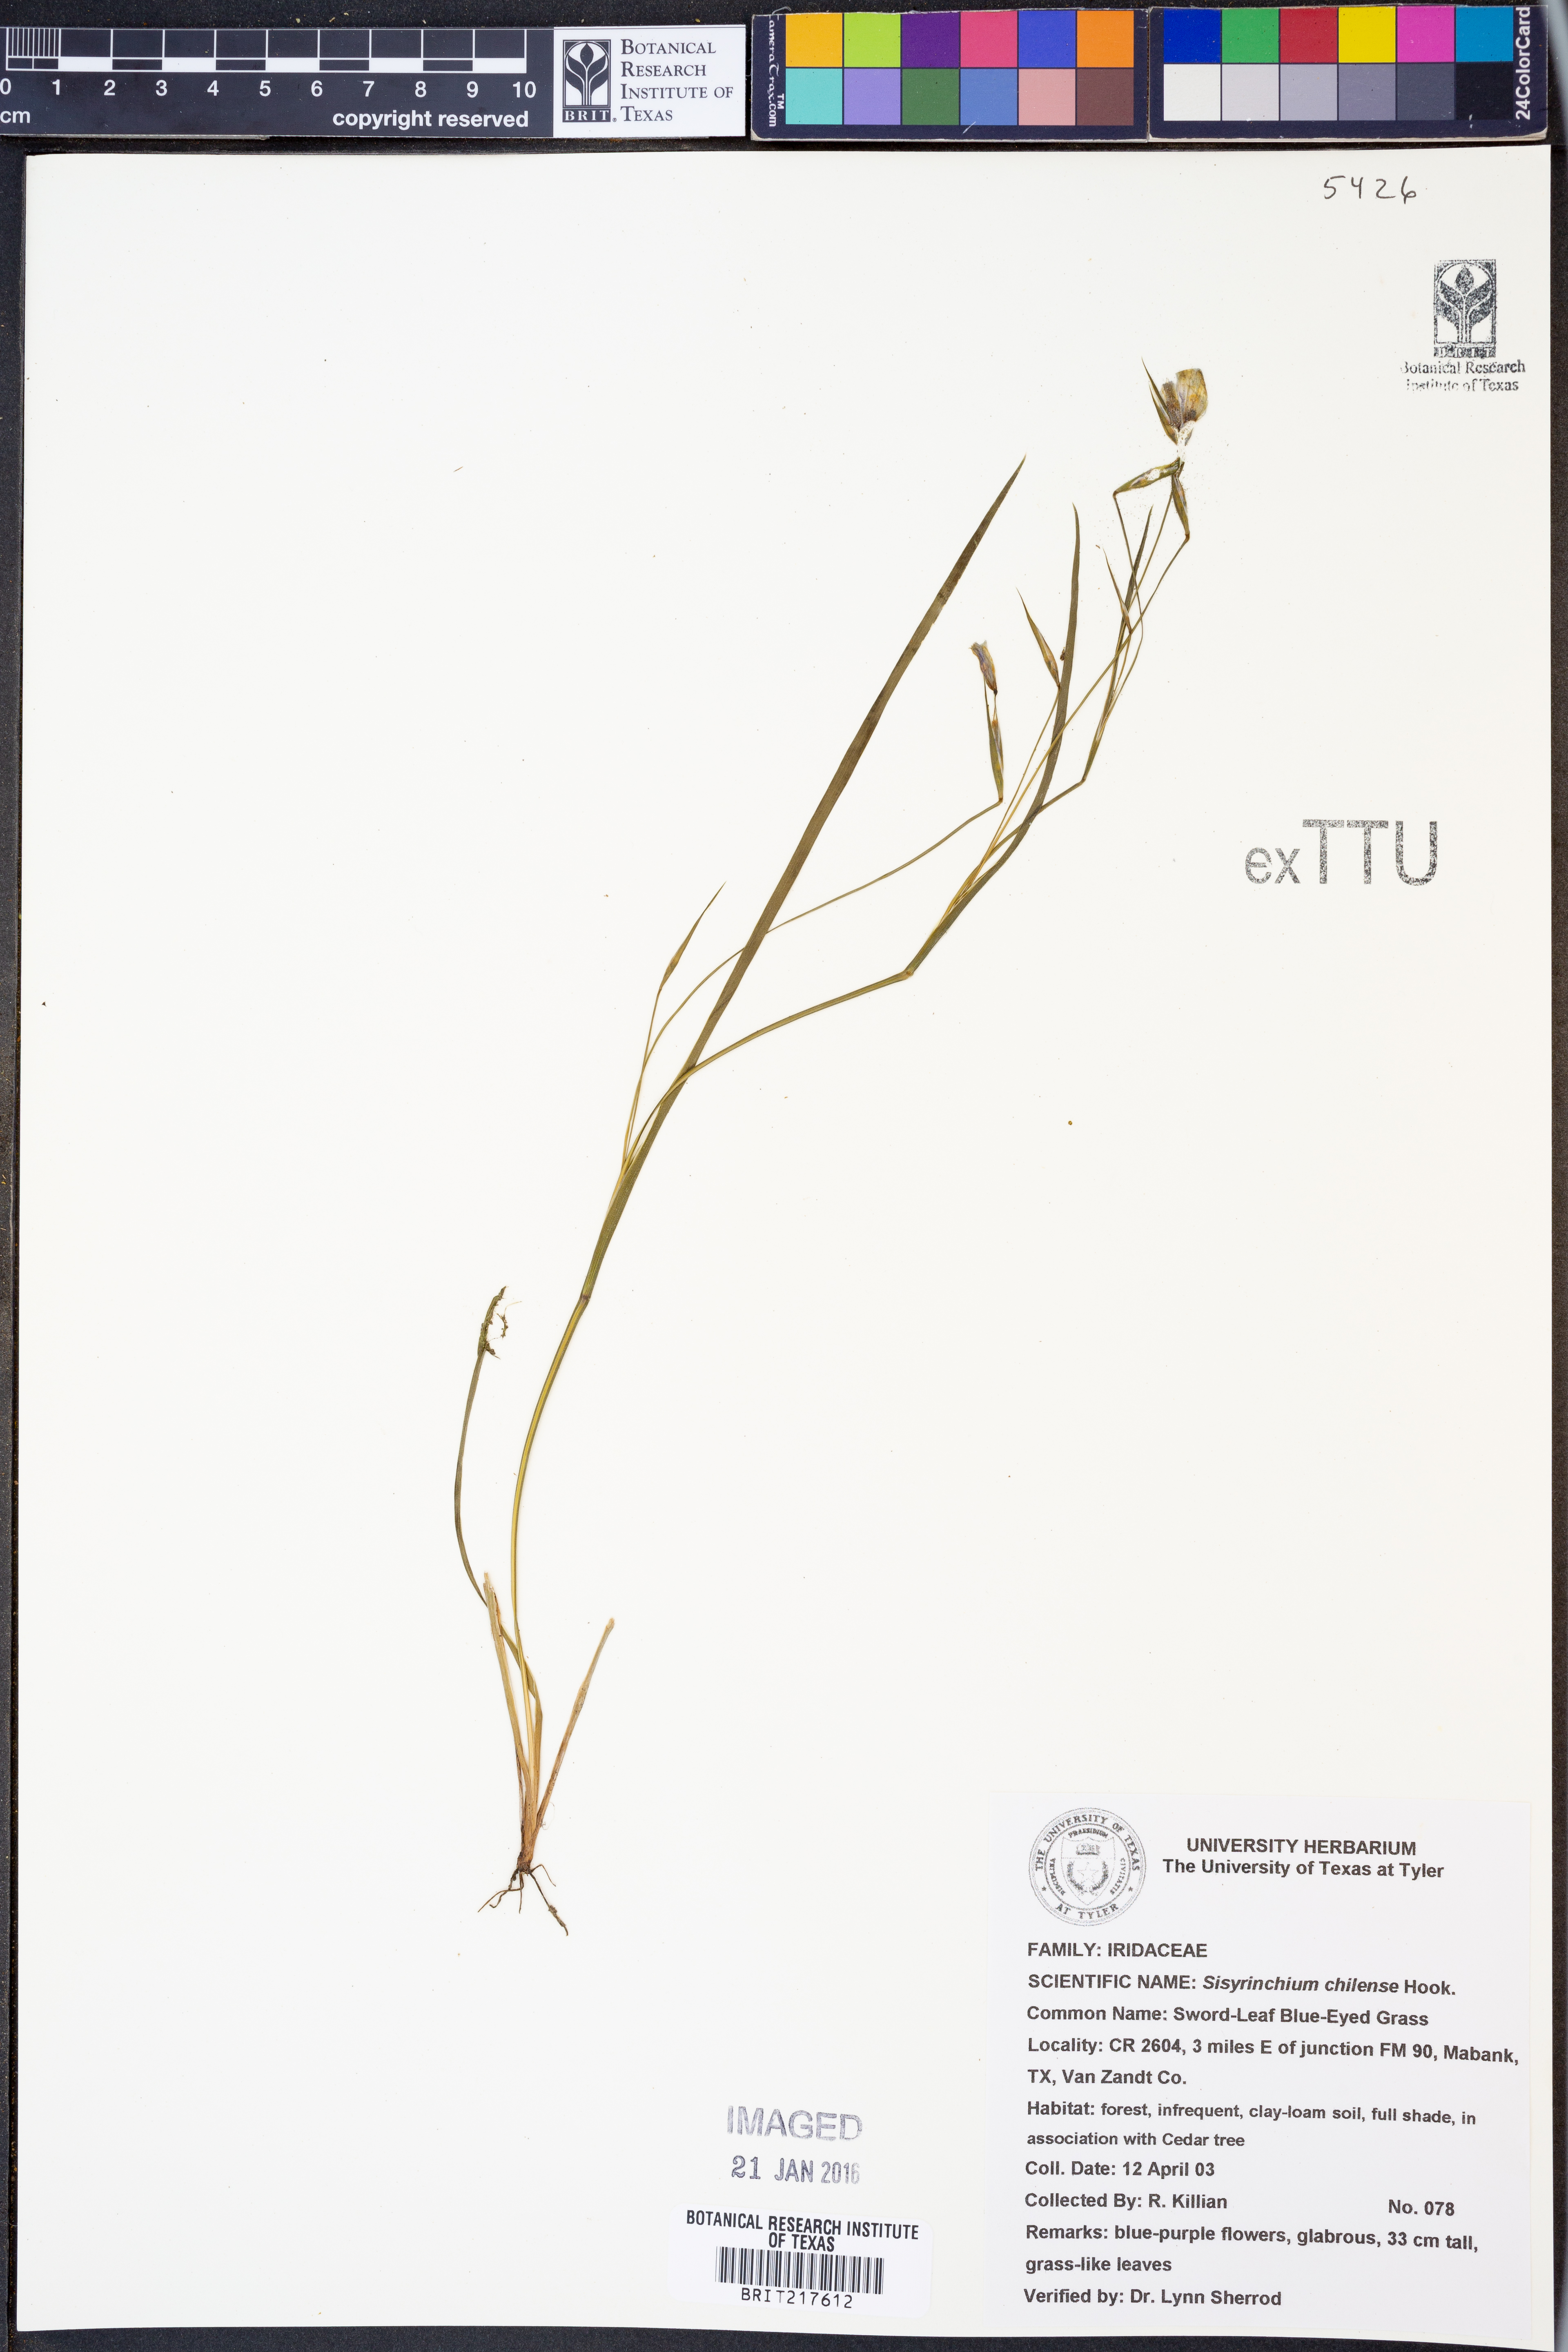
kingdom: Plantae
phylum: Tracheophyta
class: Liliopsida
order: Asparagales
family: Iridaceae
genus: Sisyrinchium
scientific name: Sisyrinchium chilense
